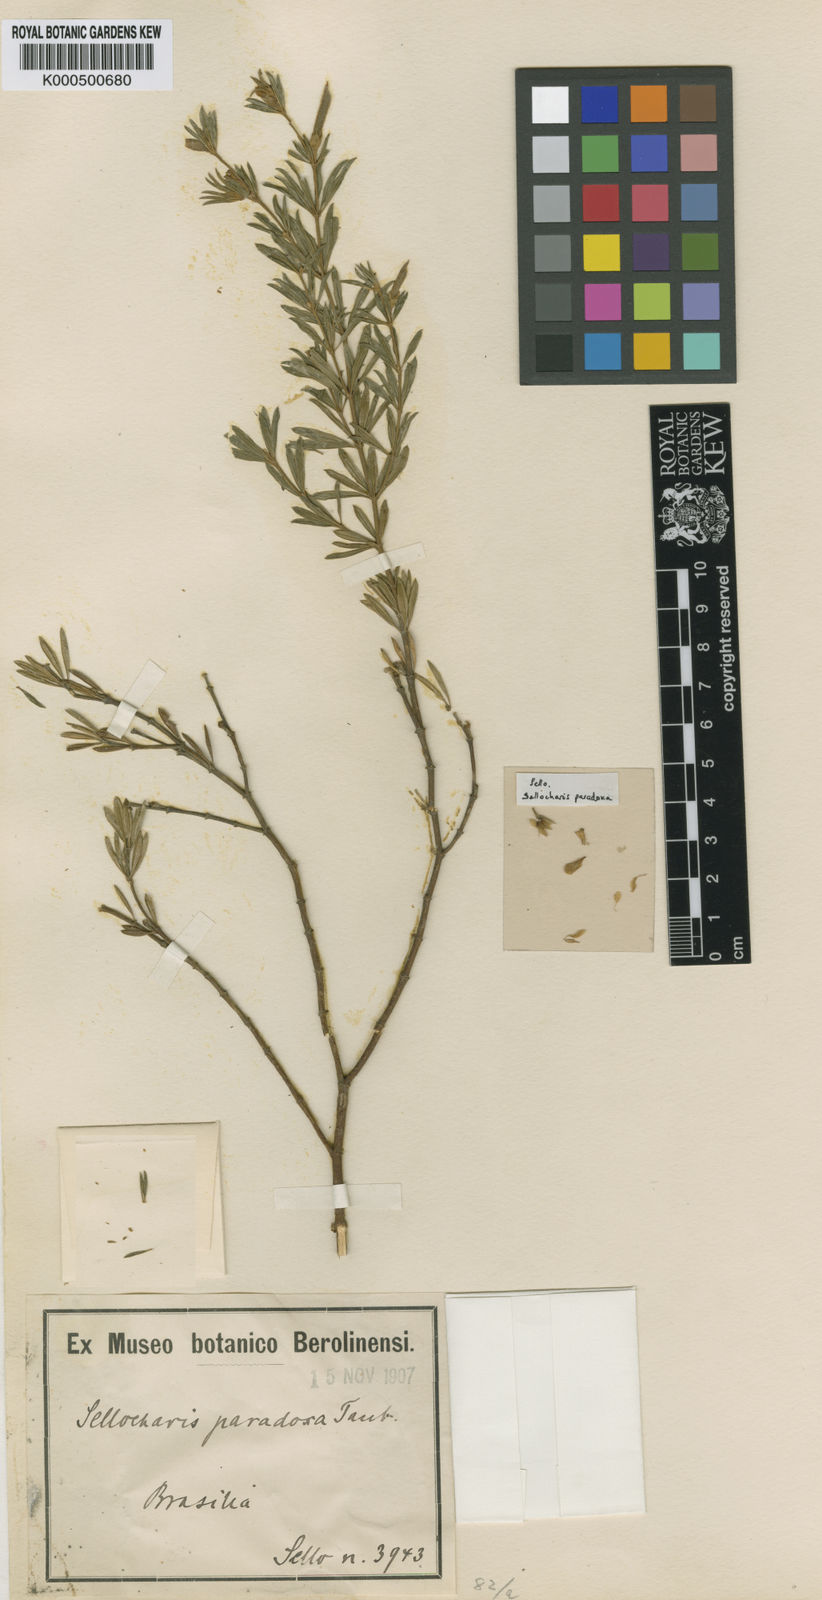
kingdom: Plantae
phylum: Tracheophyta
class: Magnoliopsida
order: Fabales
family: Fabaceae
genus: Sellocharis
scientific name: Sellocharis paradoxa
